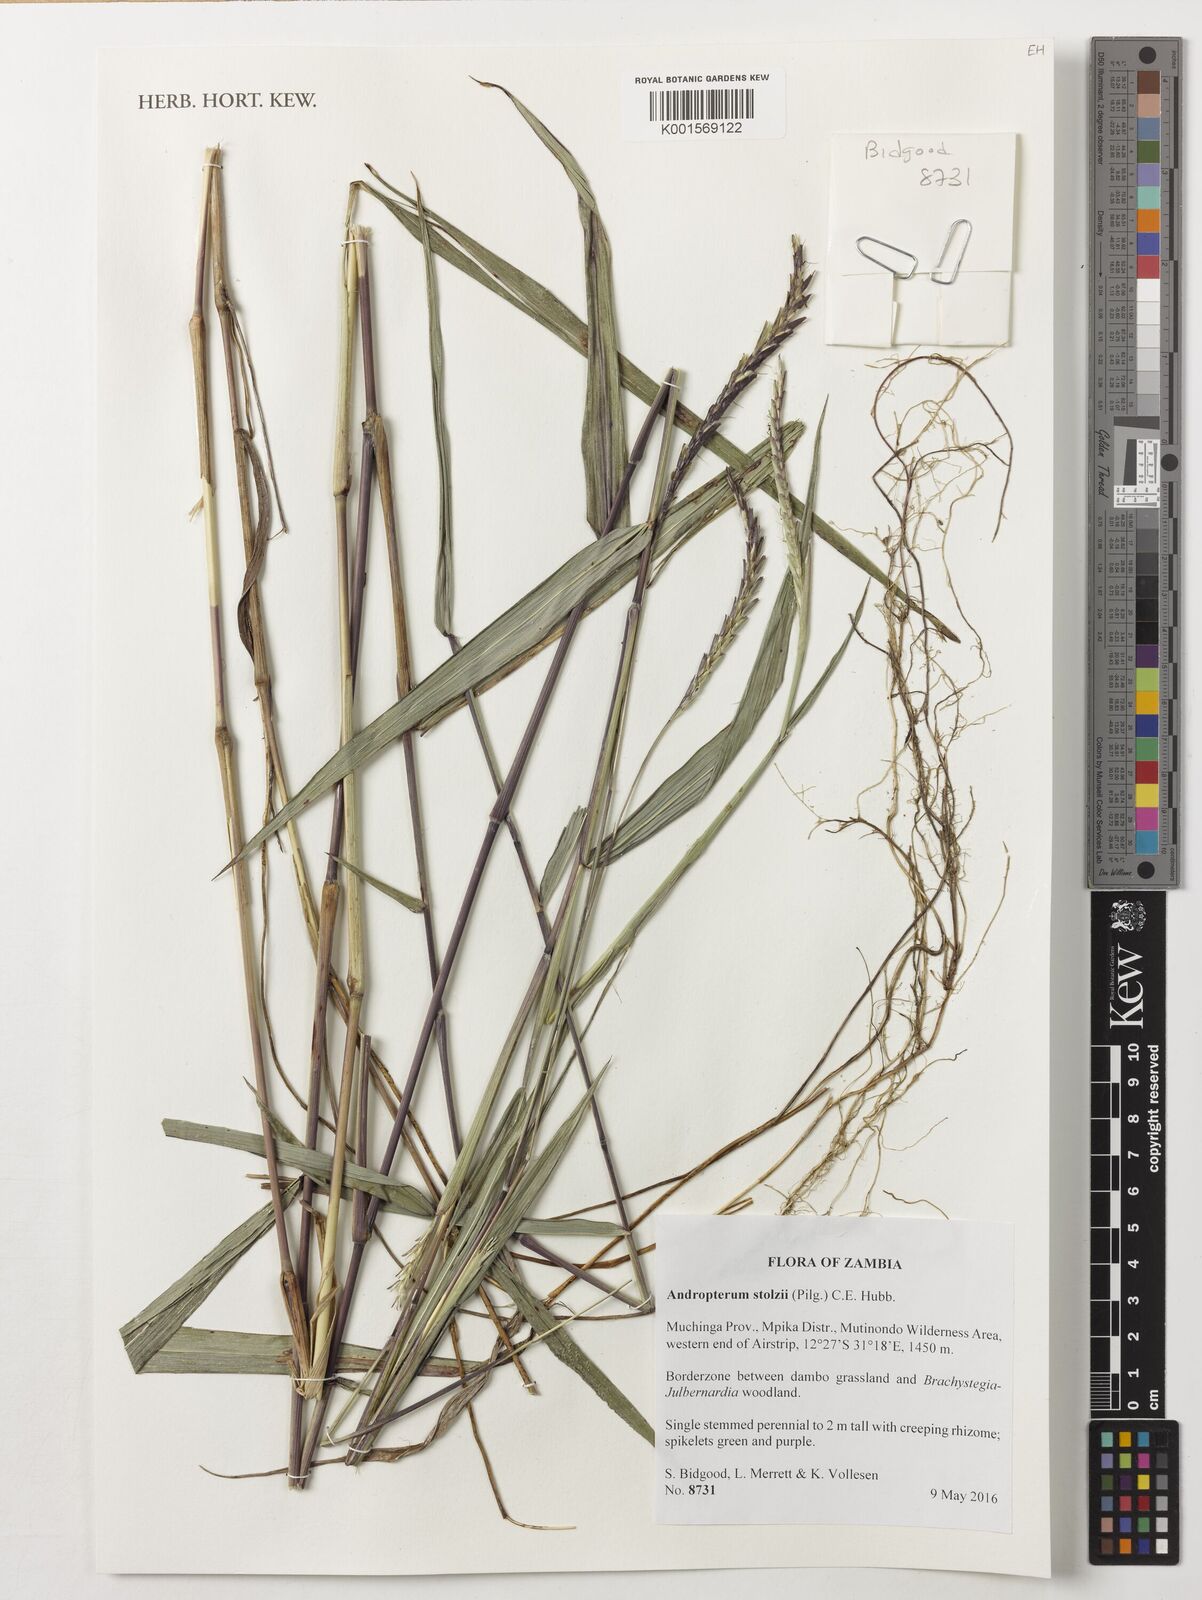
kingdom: Plantae
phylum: Tracheophyta
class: Liliopsida
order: Poales
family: Poaceae
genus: Andropterum
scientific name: Andropterum stolzii
